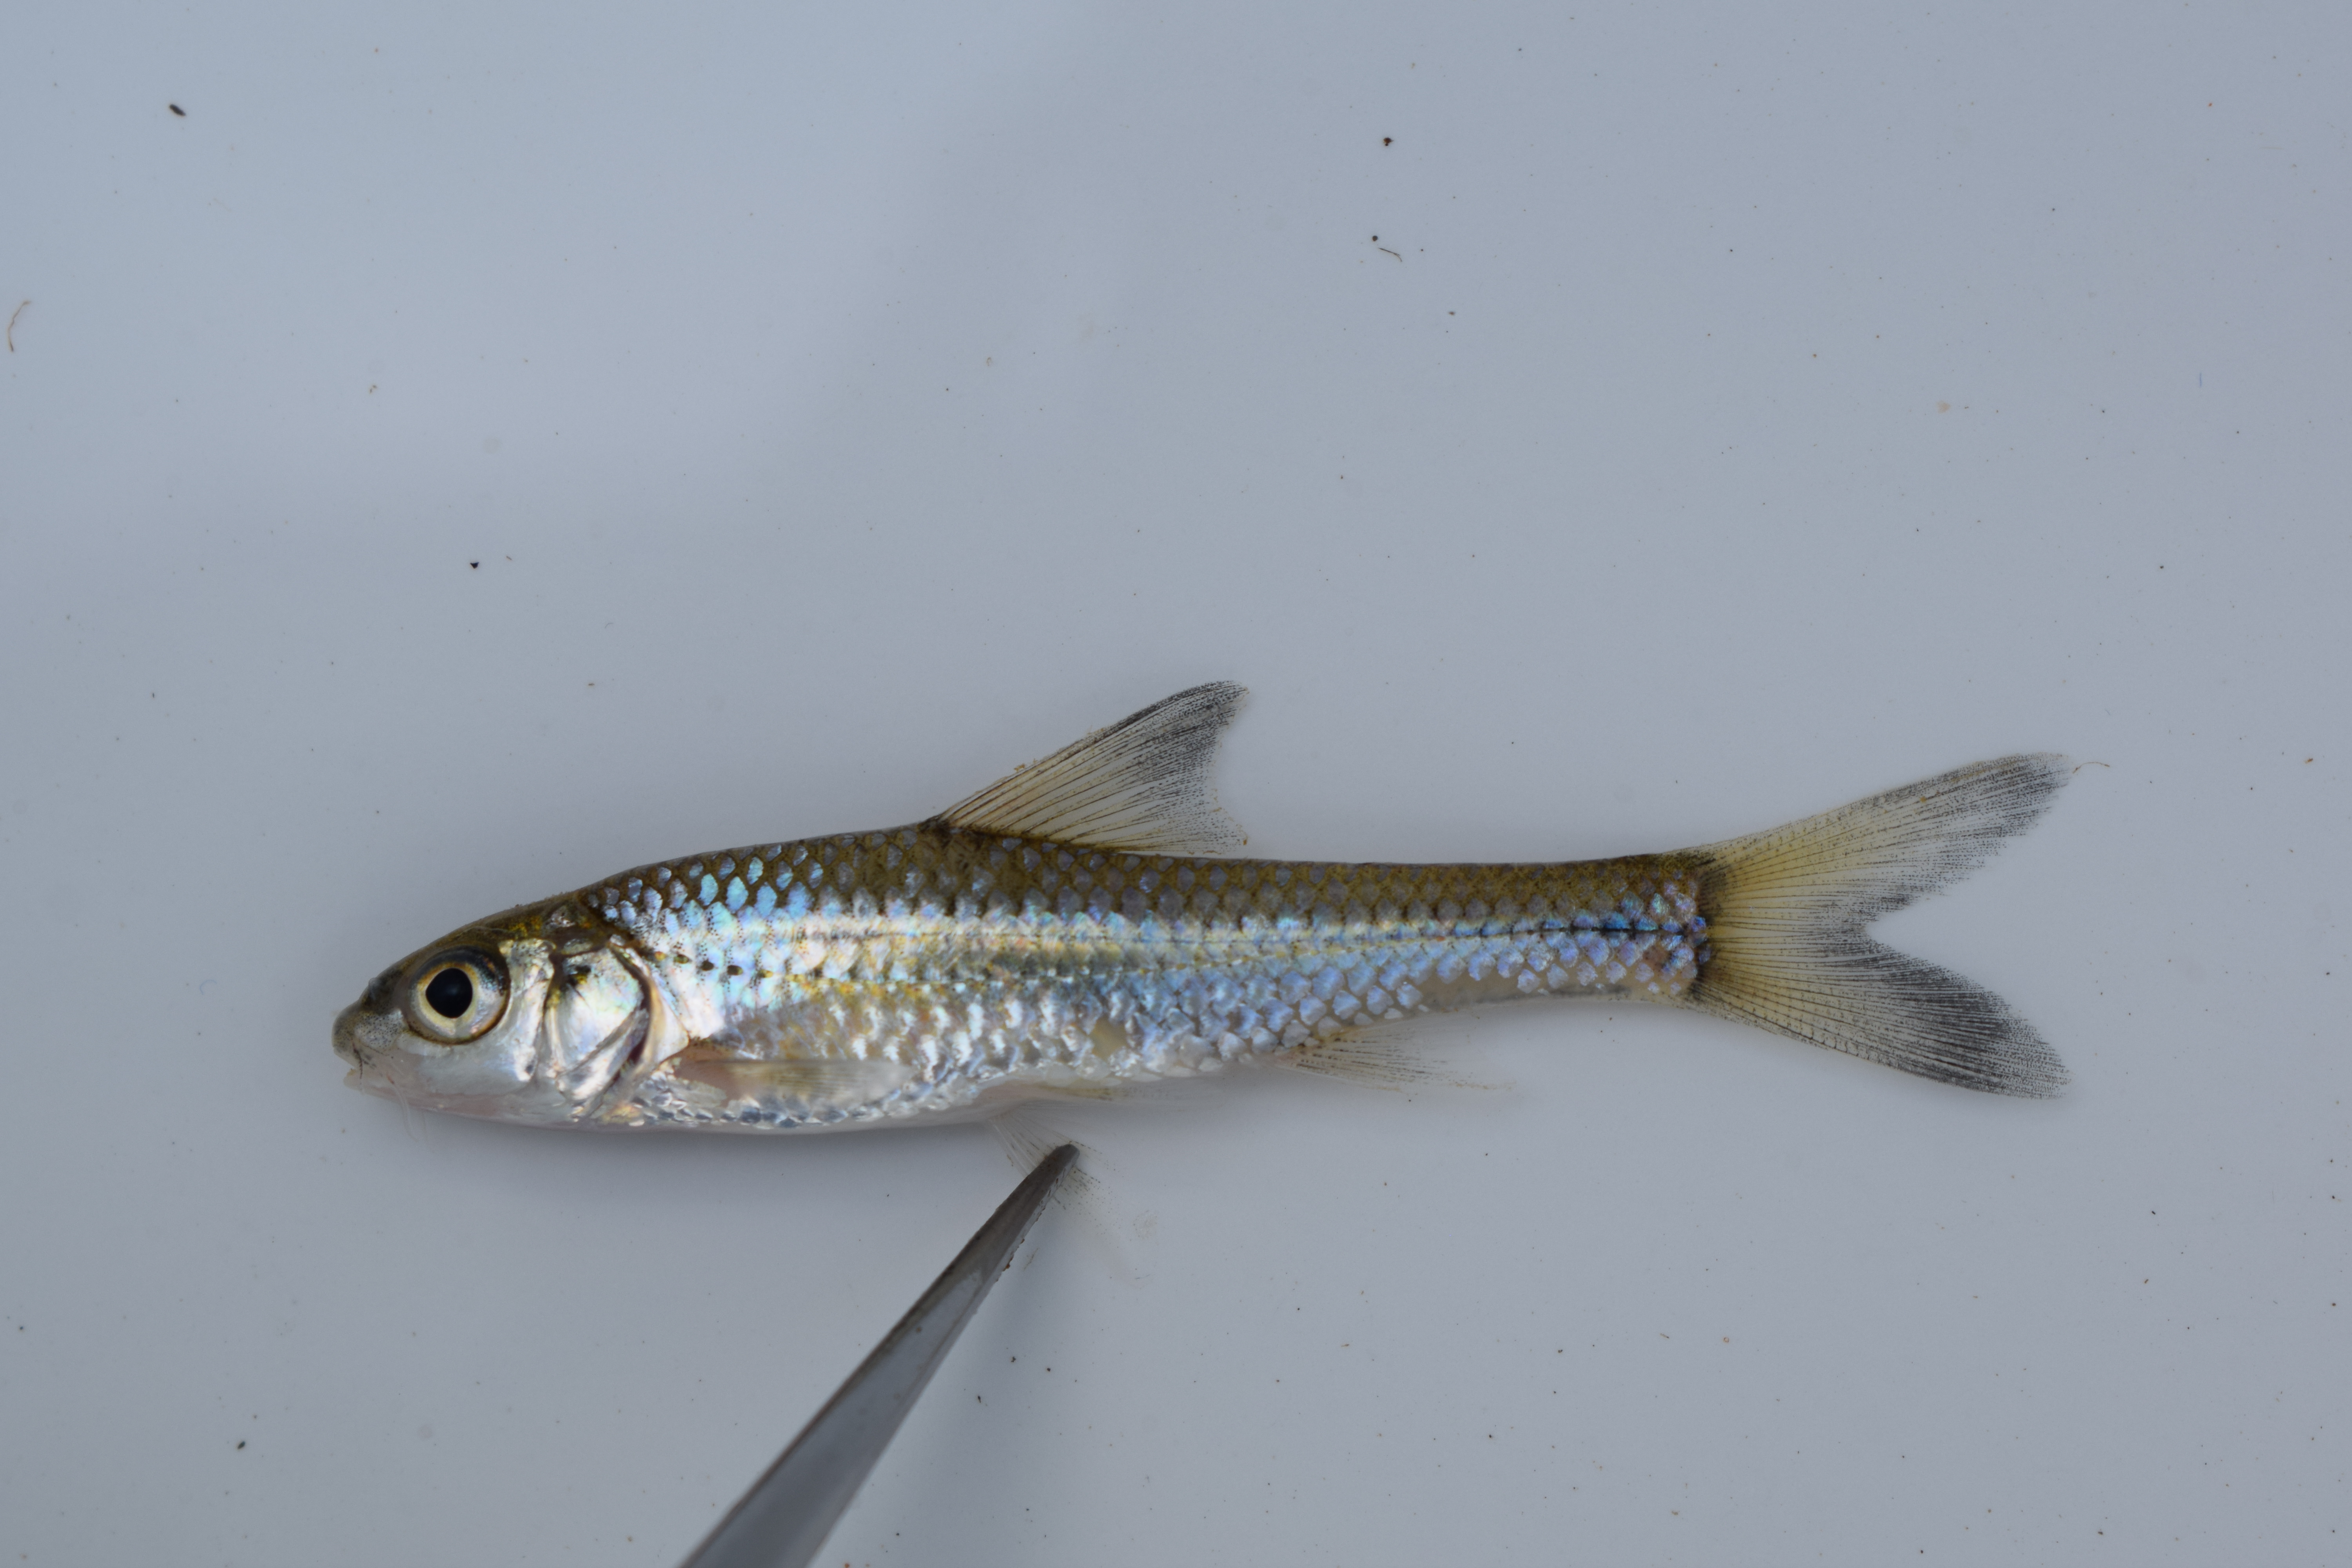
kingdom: Animalia
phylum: Chordata
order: Cypriniformes
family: Cyprinidae
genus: Enteromius
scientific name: Enteromius lineomaculatus
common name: Line-spotted barb
